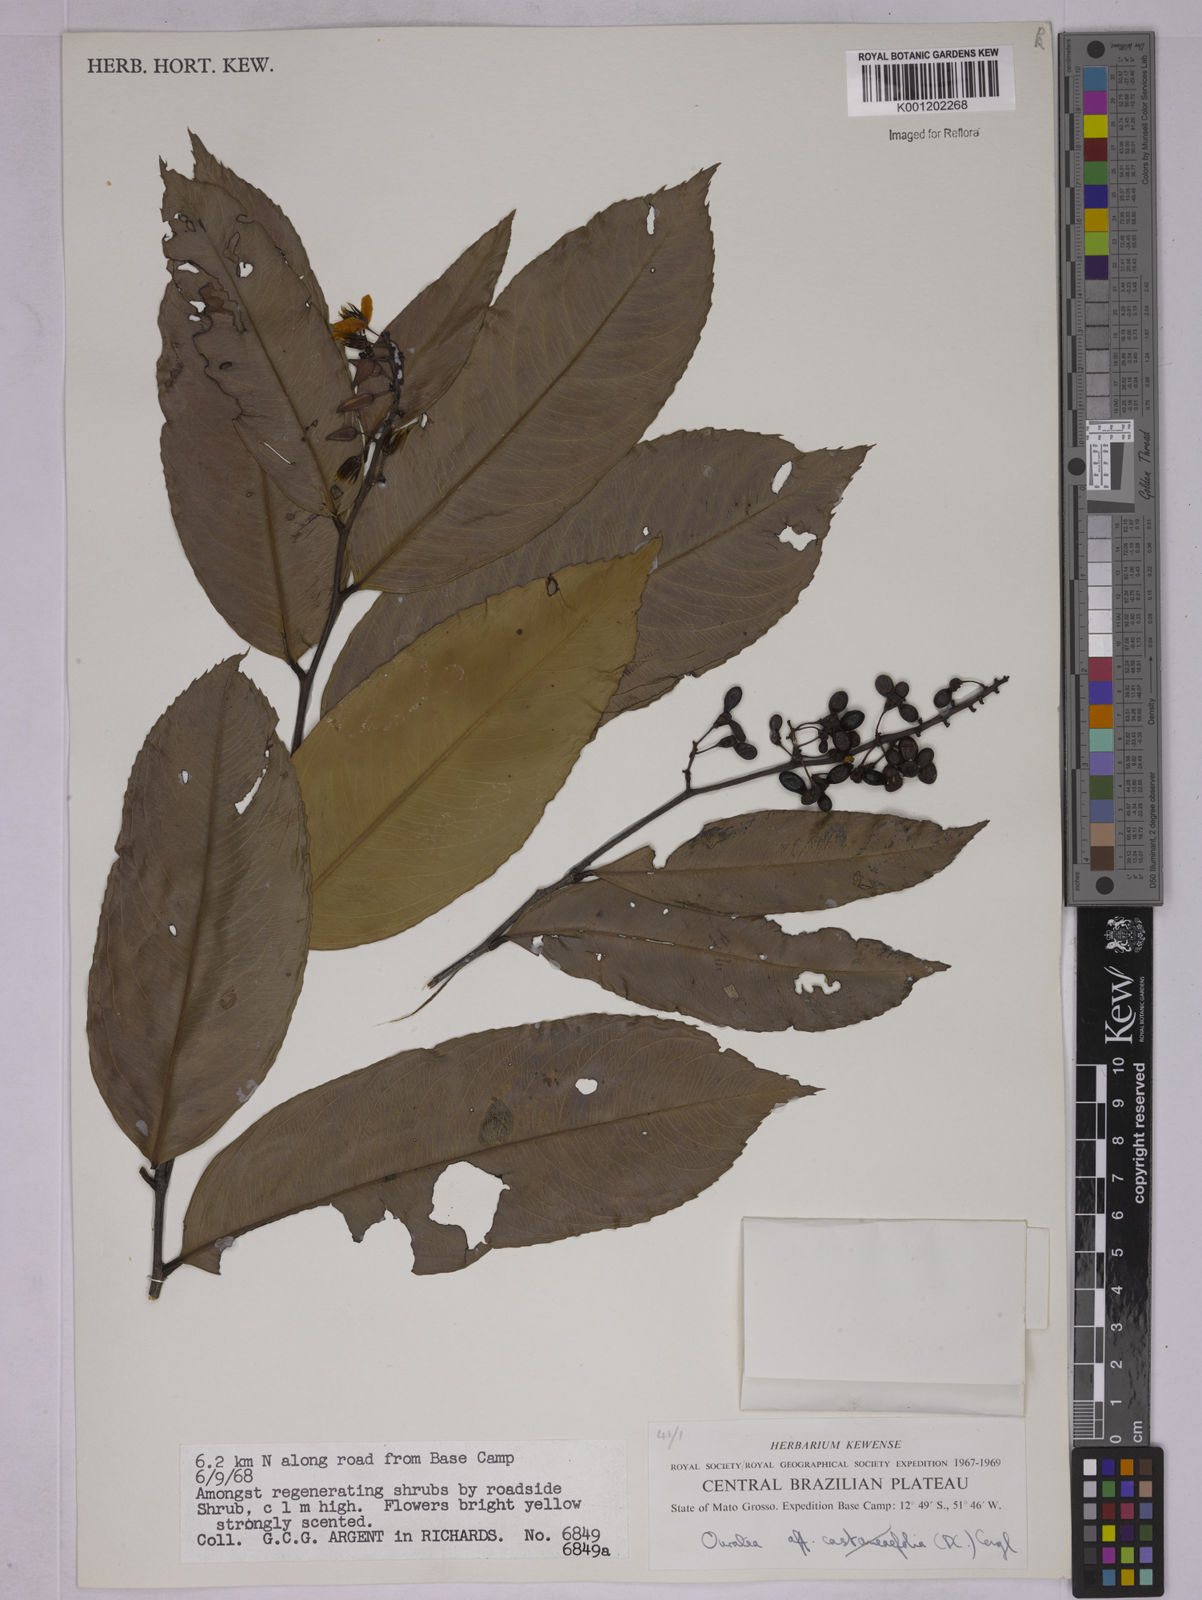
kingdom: Plantae
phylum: Tracheophyta
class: Magnoliopsida
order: Malpighiales
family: Ochnaceae
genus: Ouratea
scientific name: Ouratea
